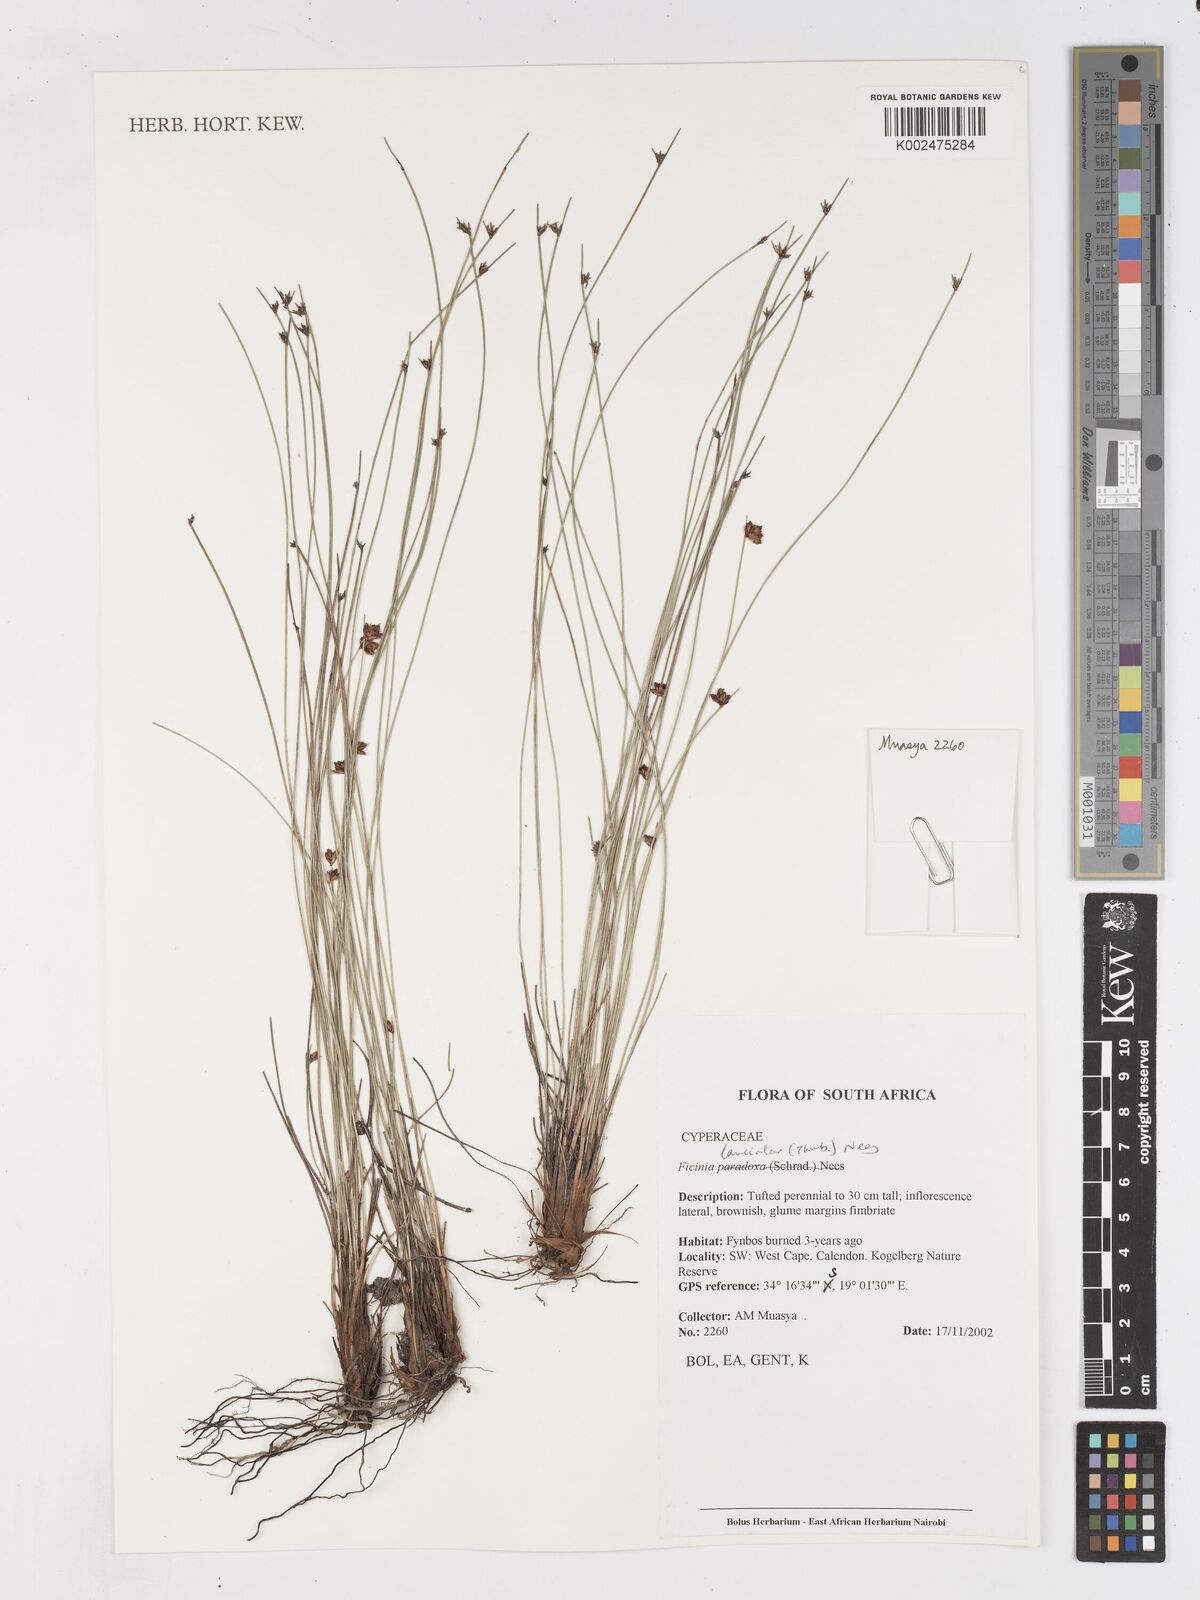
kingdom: Plantae
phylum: Tracheophyta
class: Liliopsida
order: Poales
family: Cyperaceae
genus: Ficinia
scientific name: Ficinia laciniata
